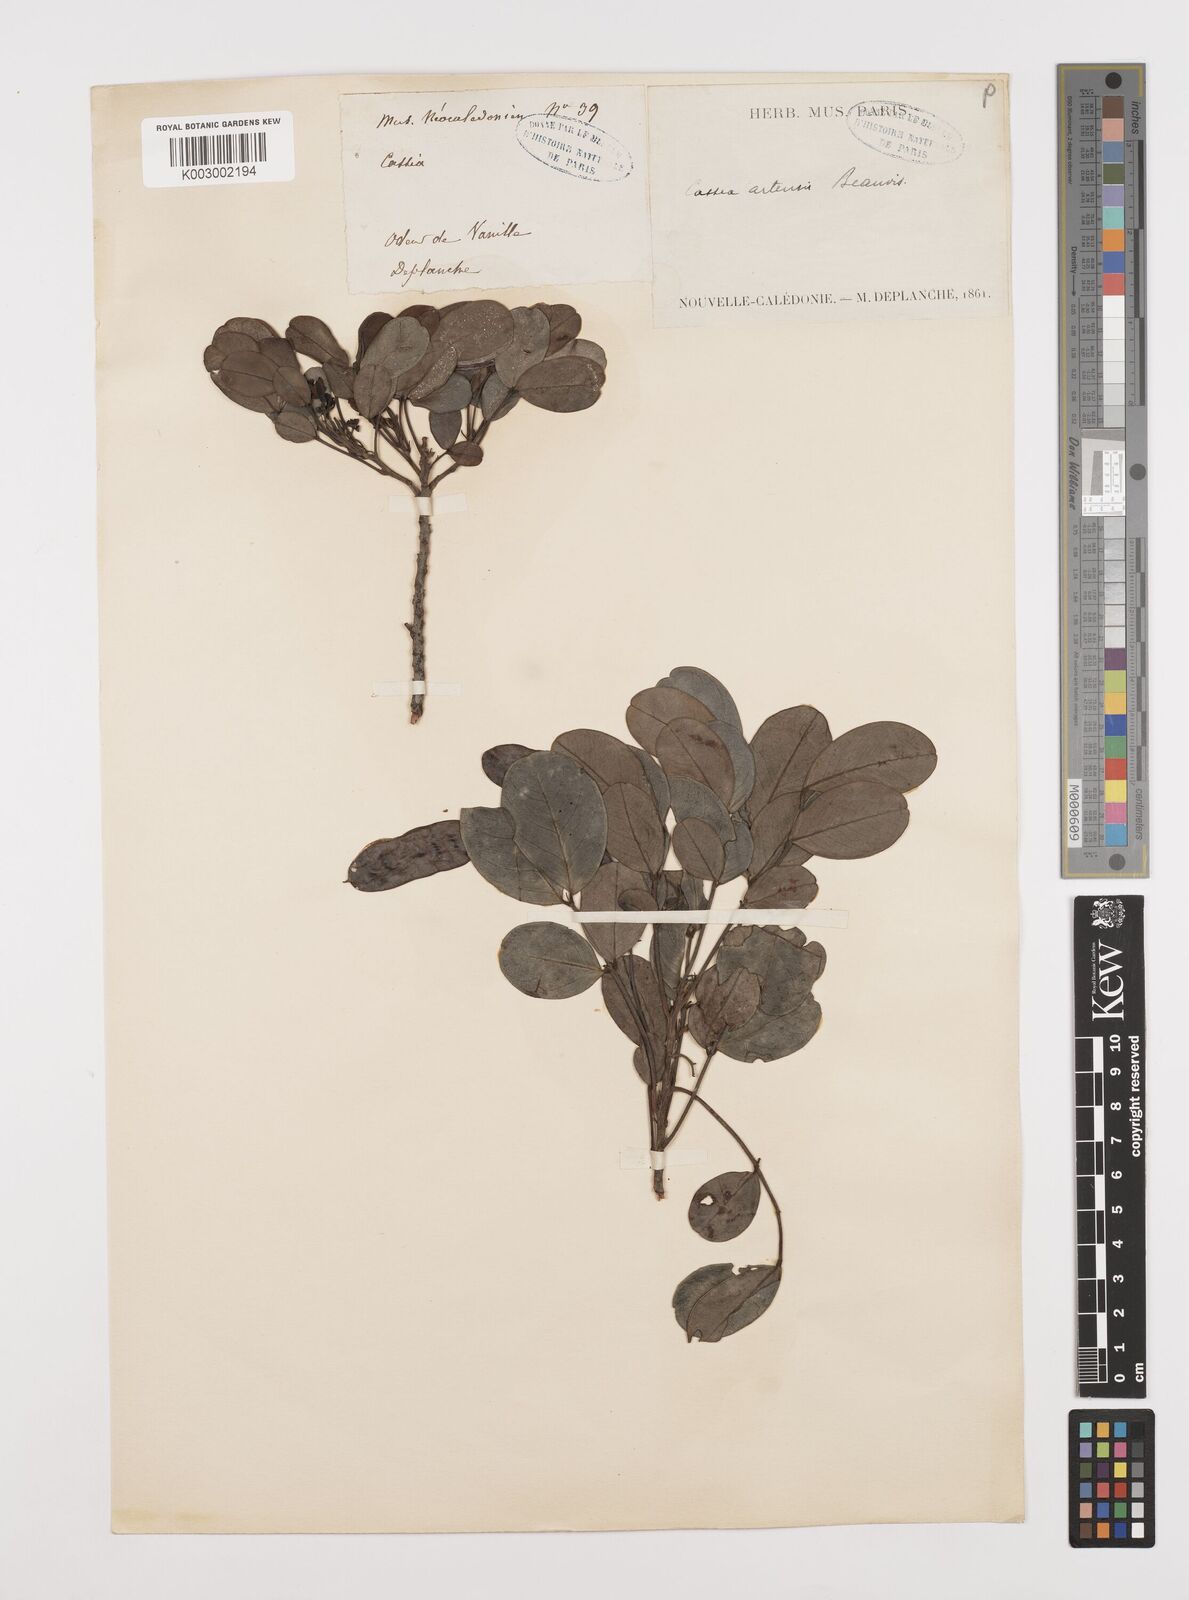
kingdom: Plantae
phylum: Tracheophyta
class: Magnoliopsida
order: Fabales
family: Fabaceae
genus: Cassia
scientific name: Cassia artensis
